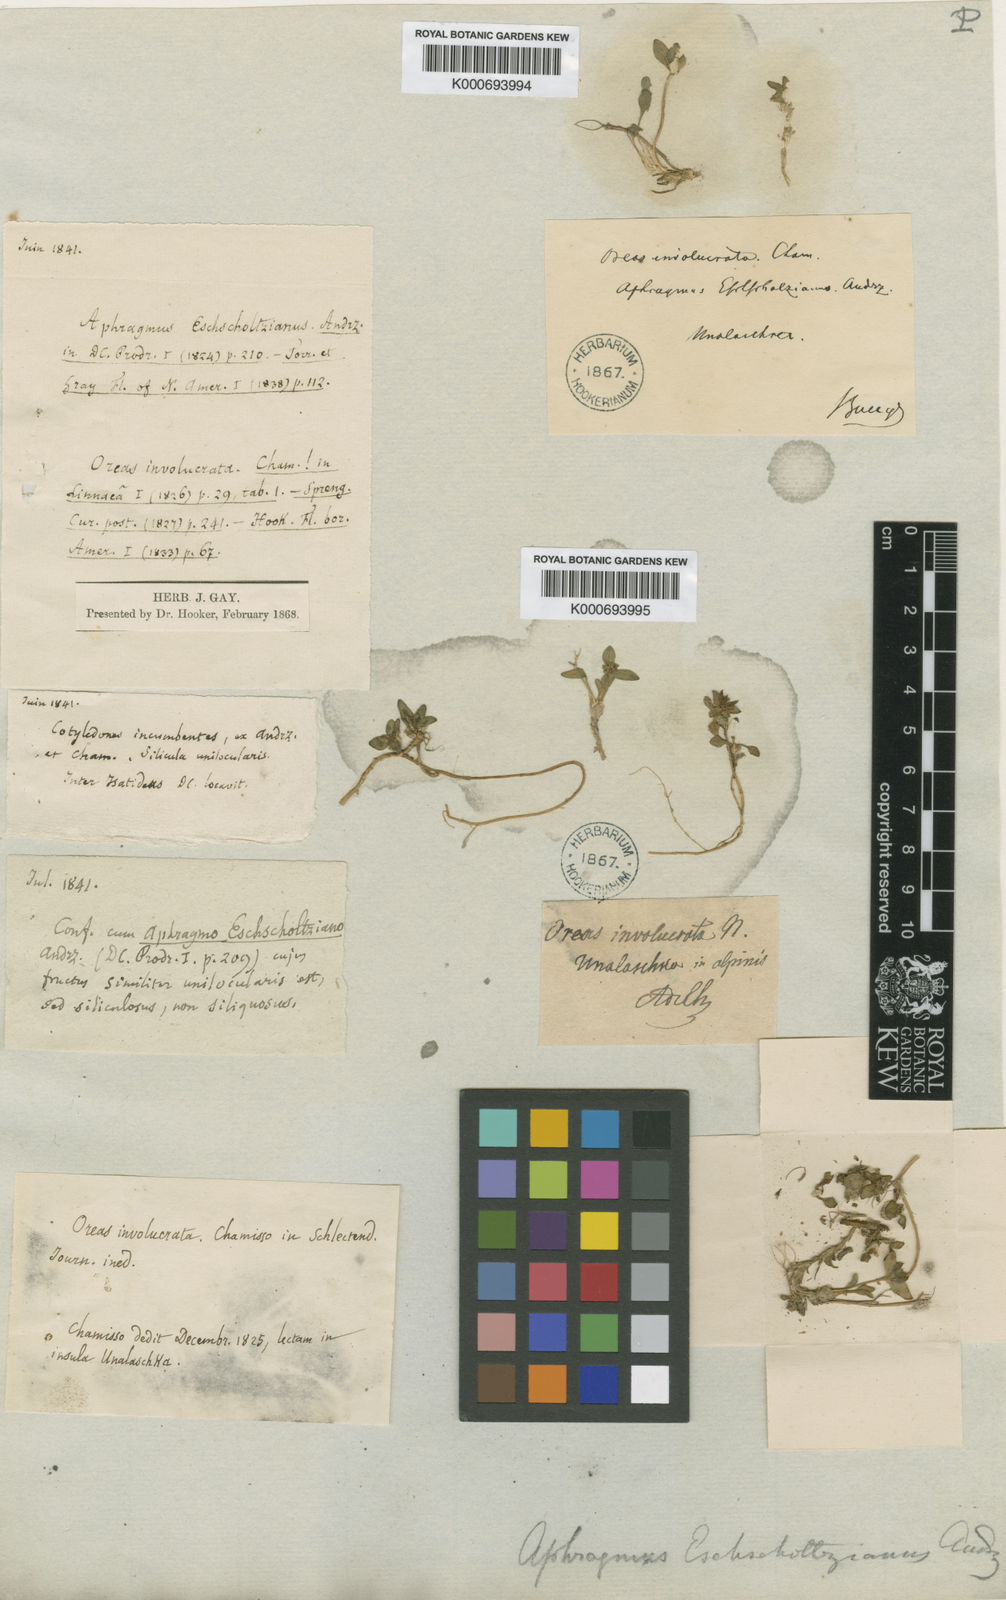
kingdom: Plantae
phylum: Tracheophyta
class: Magnoliopsida
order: Brassicales
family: Brassicaceae
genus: Aphragmus
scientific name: Aphragmus eschscholtzianus
